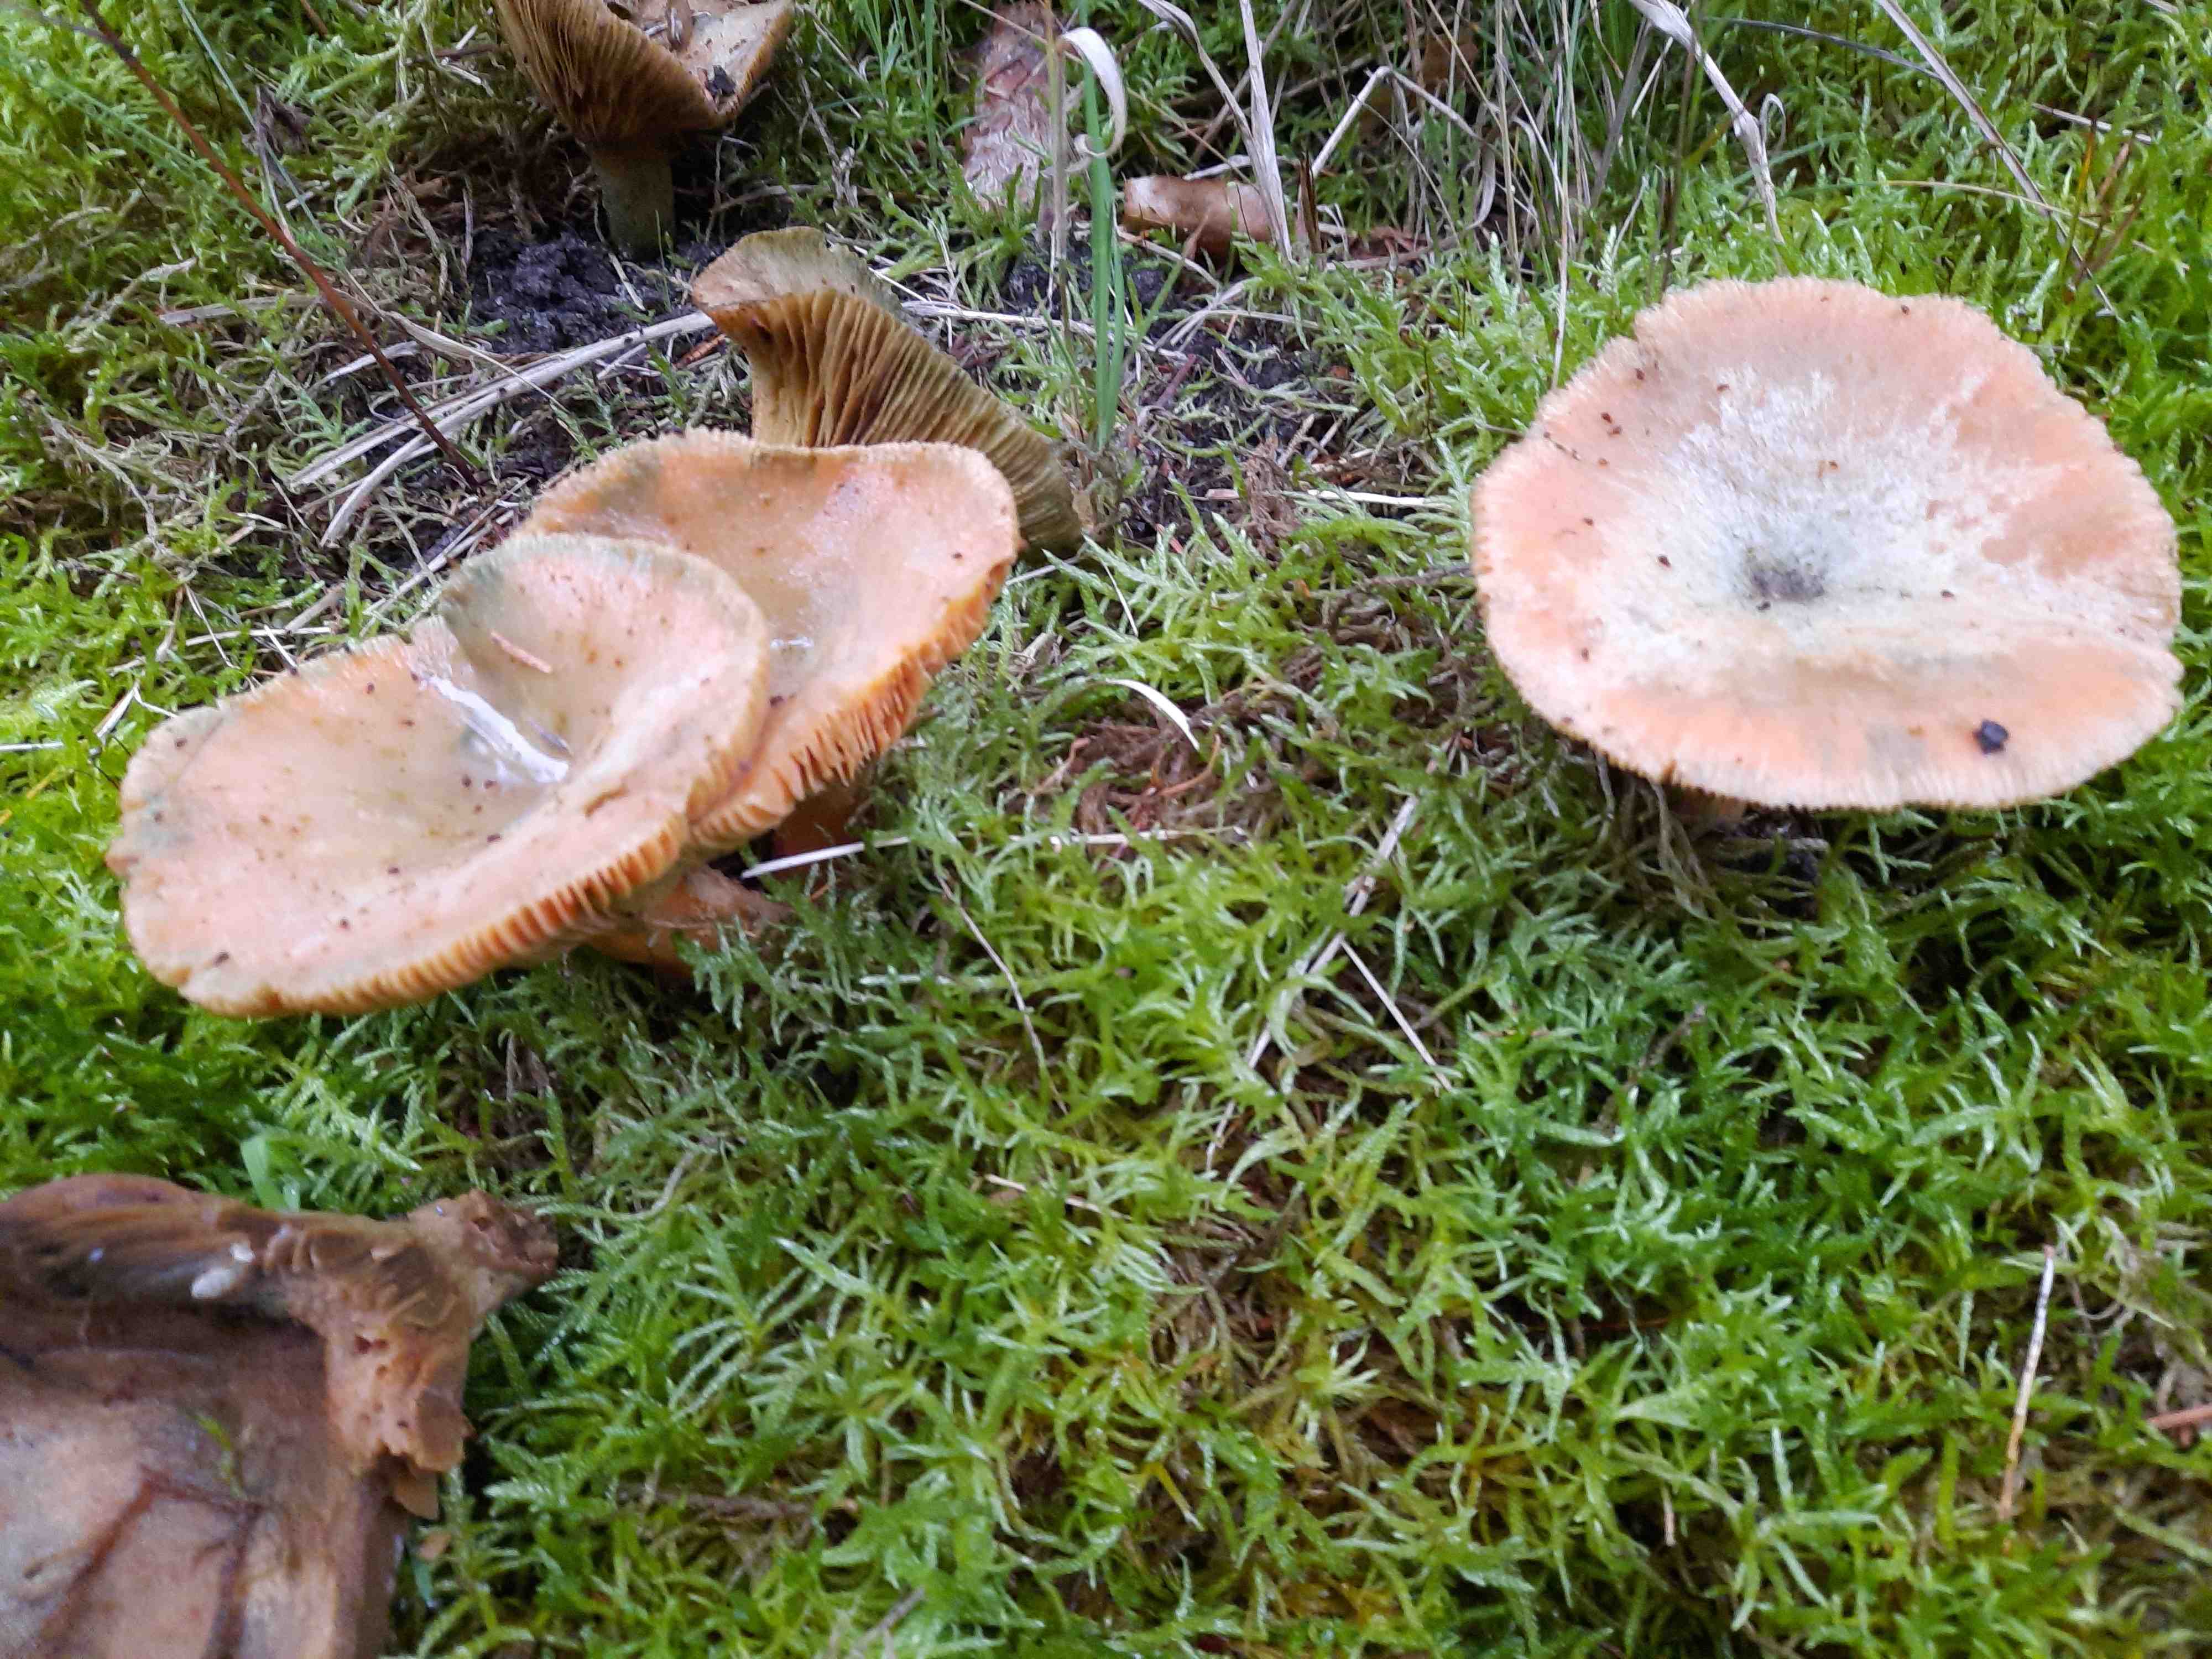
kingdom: Fungi
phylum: Basidiomycota
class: Agaricomycetes
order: Russulales
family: Russulaceae
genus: Lactarius
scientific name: Lactarius deterrimus
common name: gran-mælkehat
